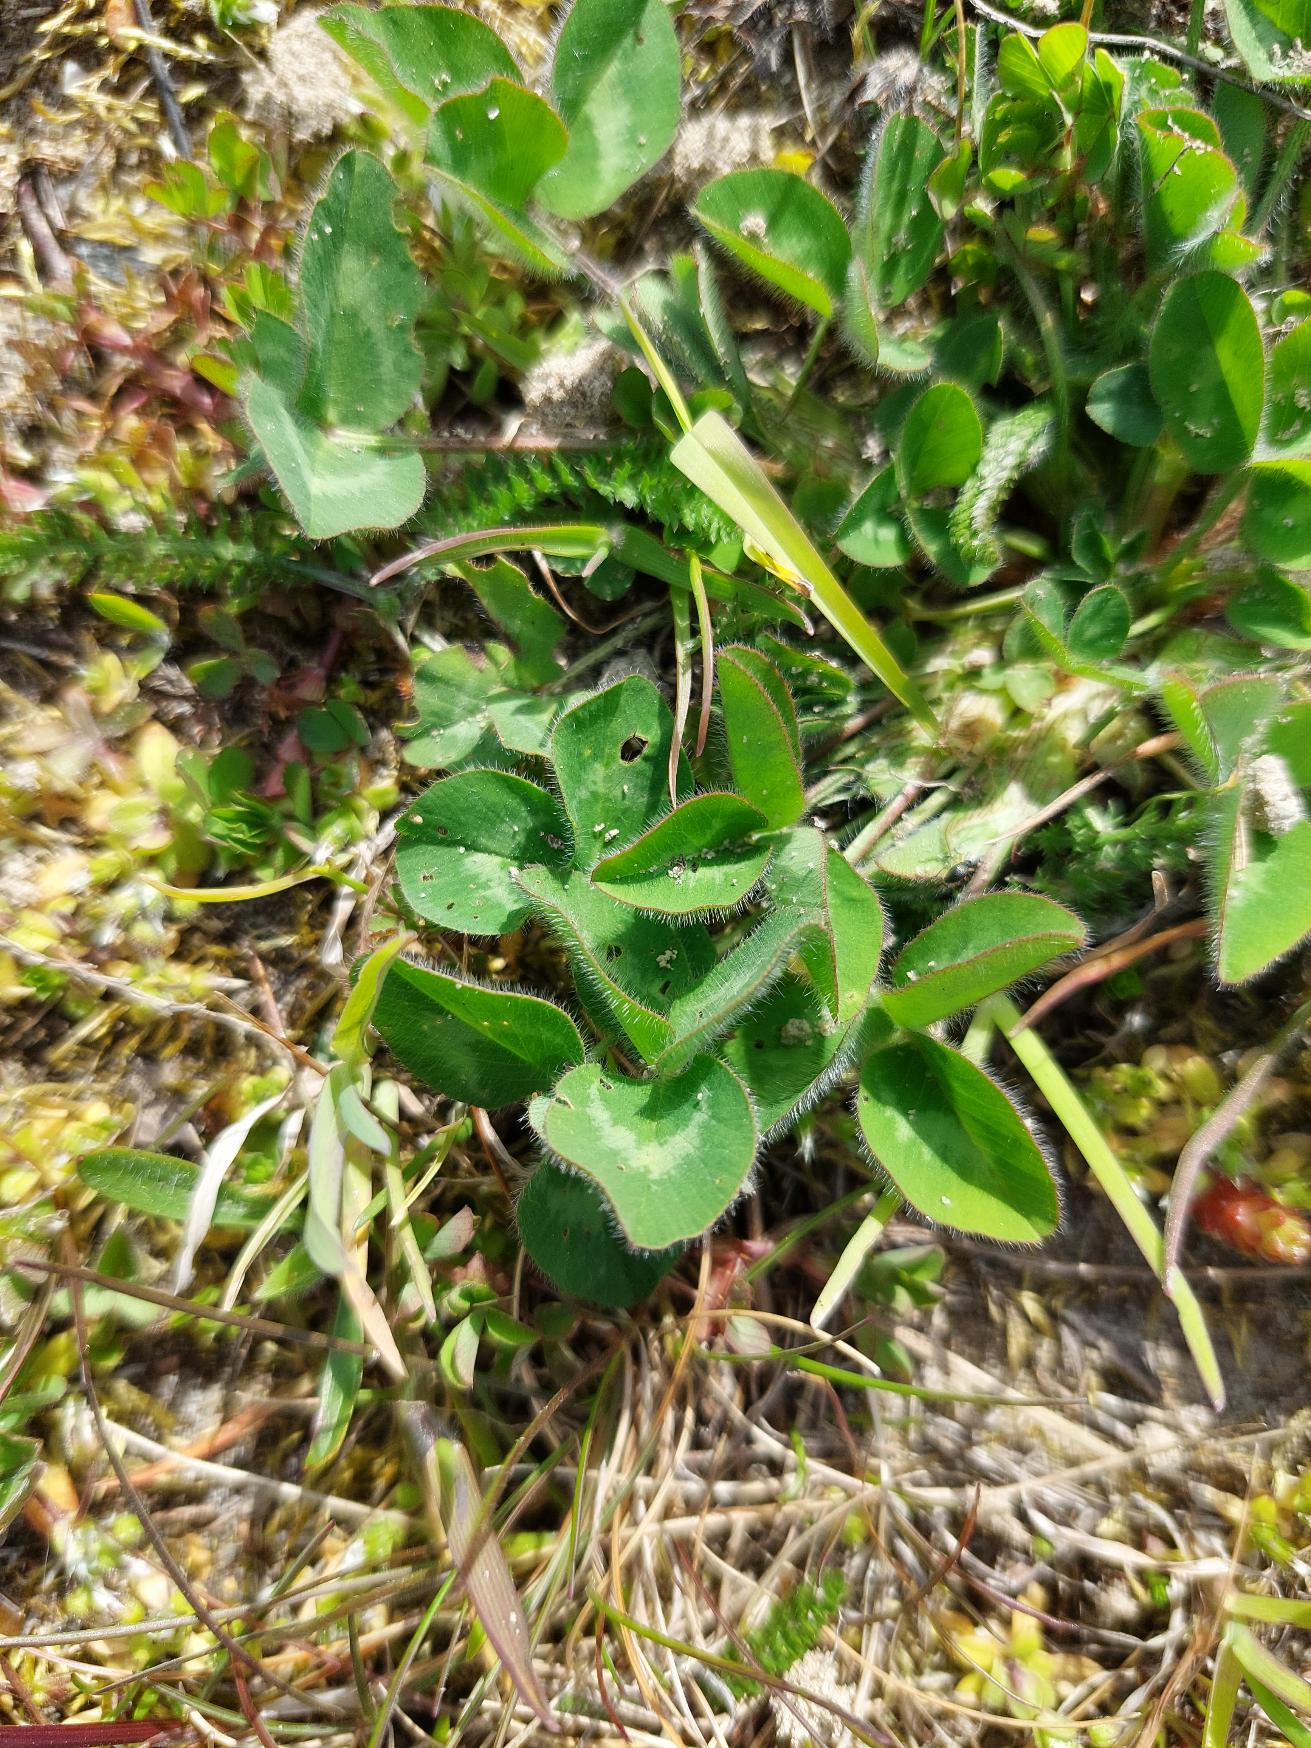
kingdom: Plantae
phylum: Tracheophyta
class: Magnoliopsida
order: Fabales
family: Fabaceae
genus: Trifolium
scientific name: Trifolium pratense
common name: Rød-kløver
